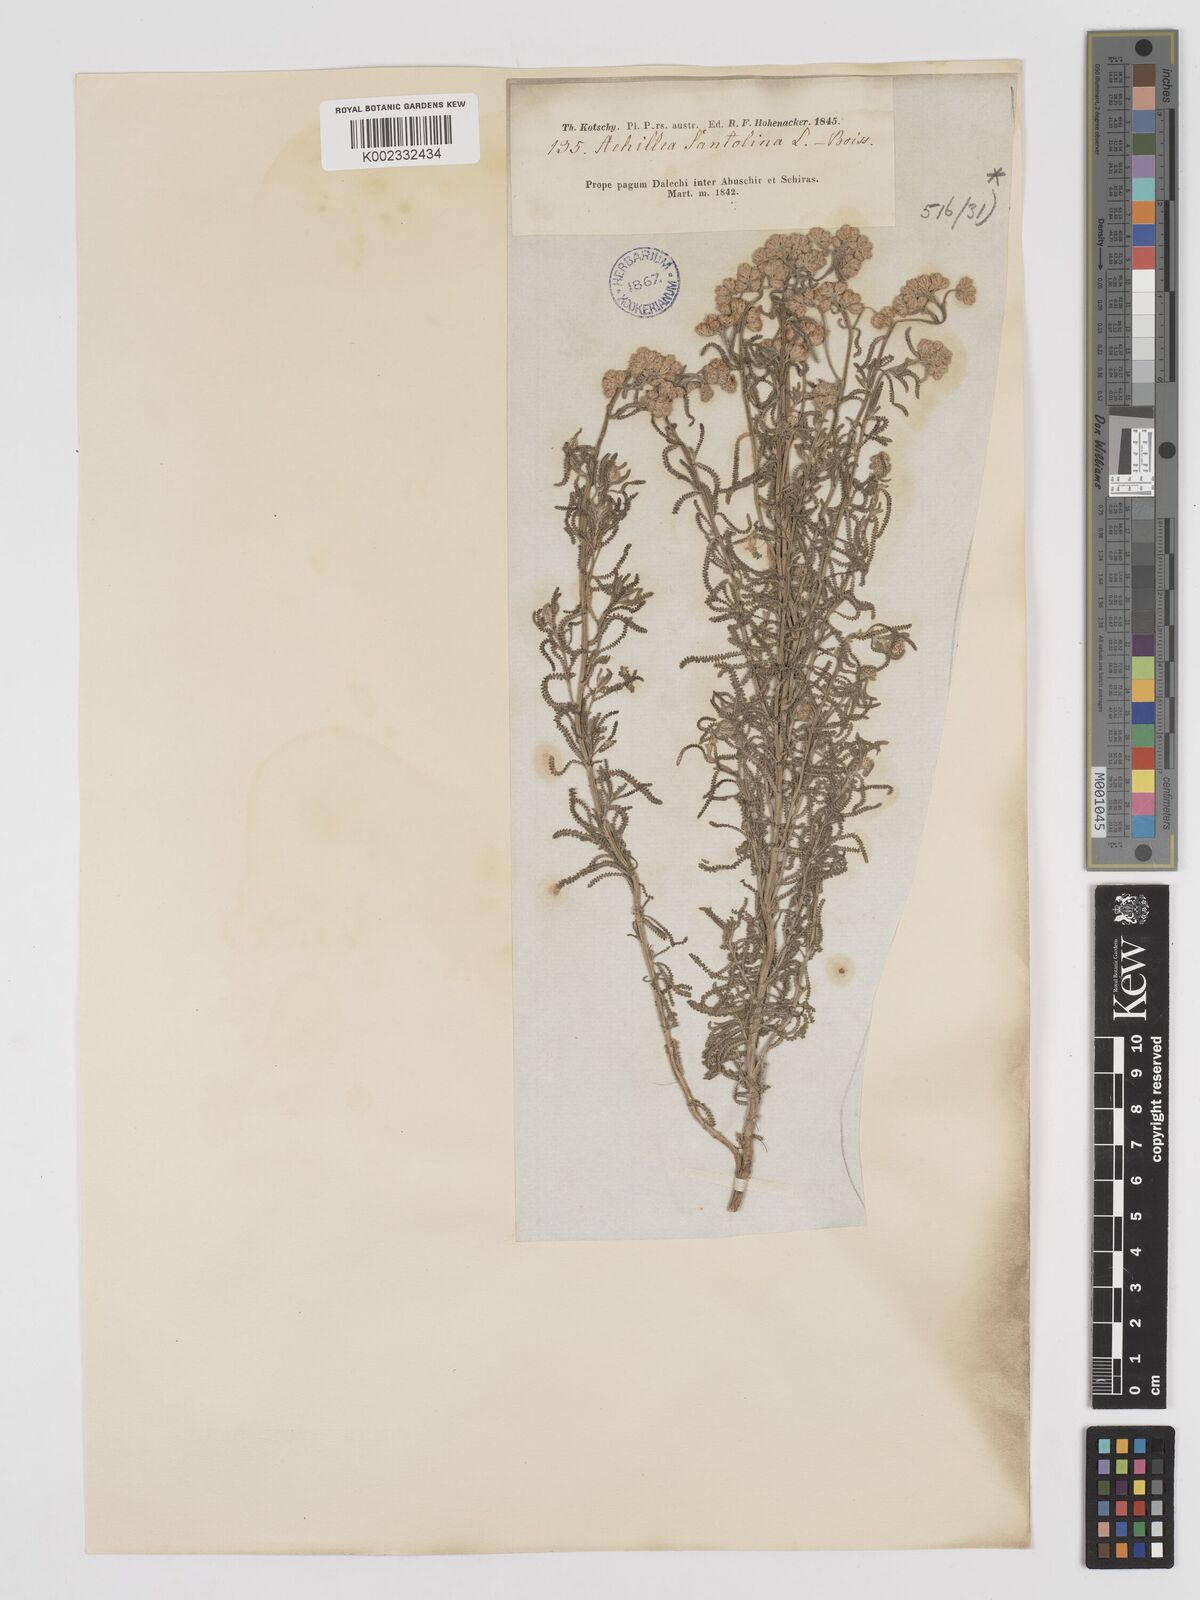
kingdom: Plantae
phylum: Tracheophyta
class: Magnoliopsida
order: Asterales
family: Asteraceae
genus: Achillea
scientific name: Achillea tenuifolia
